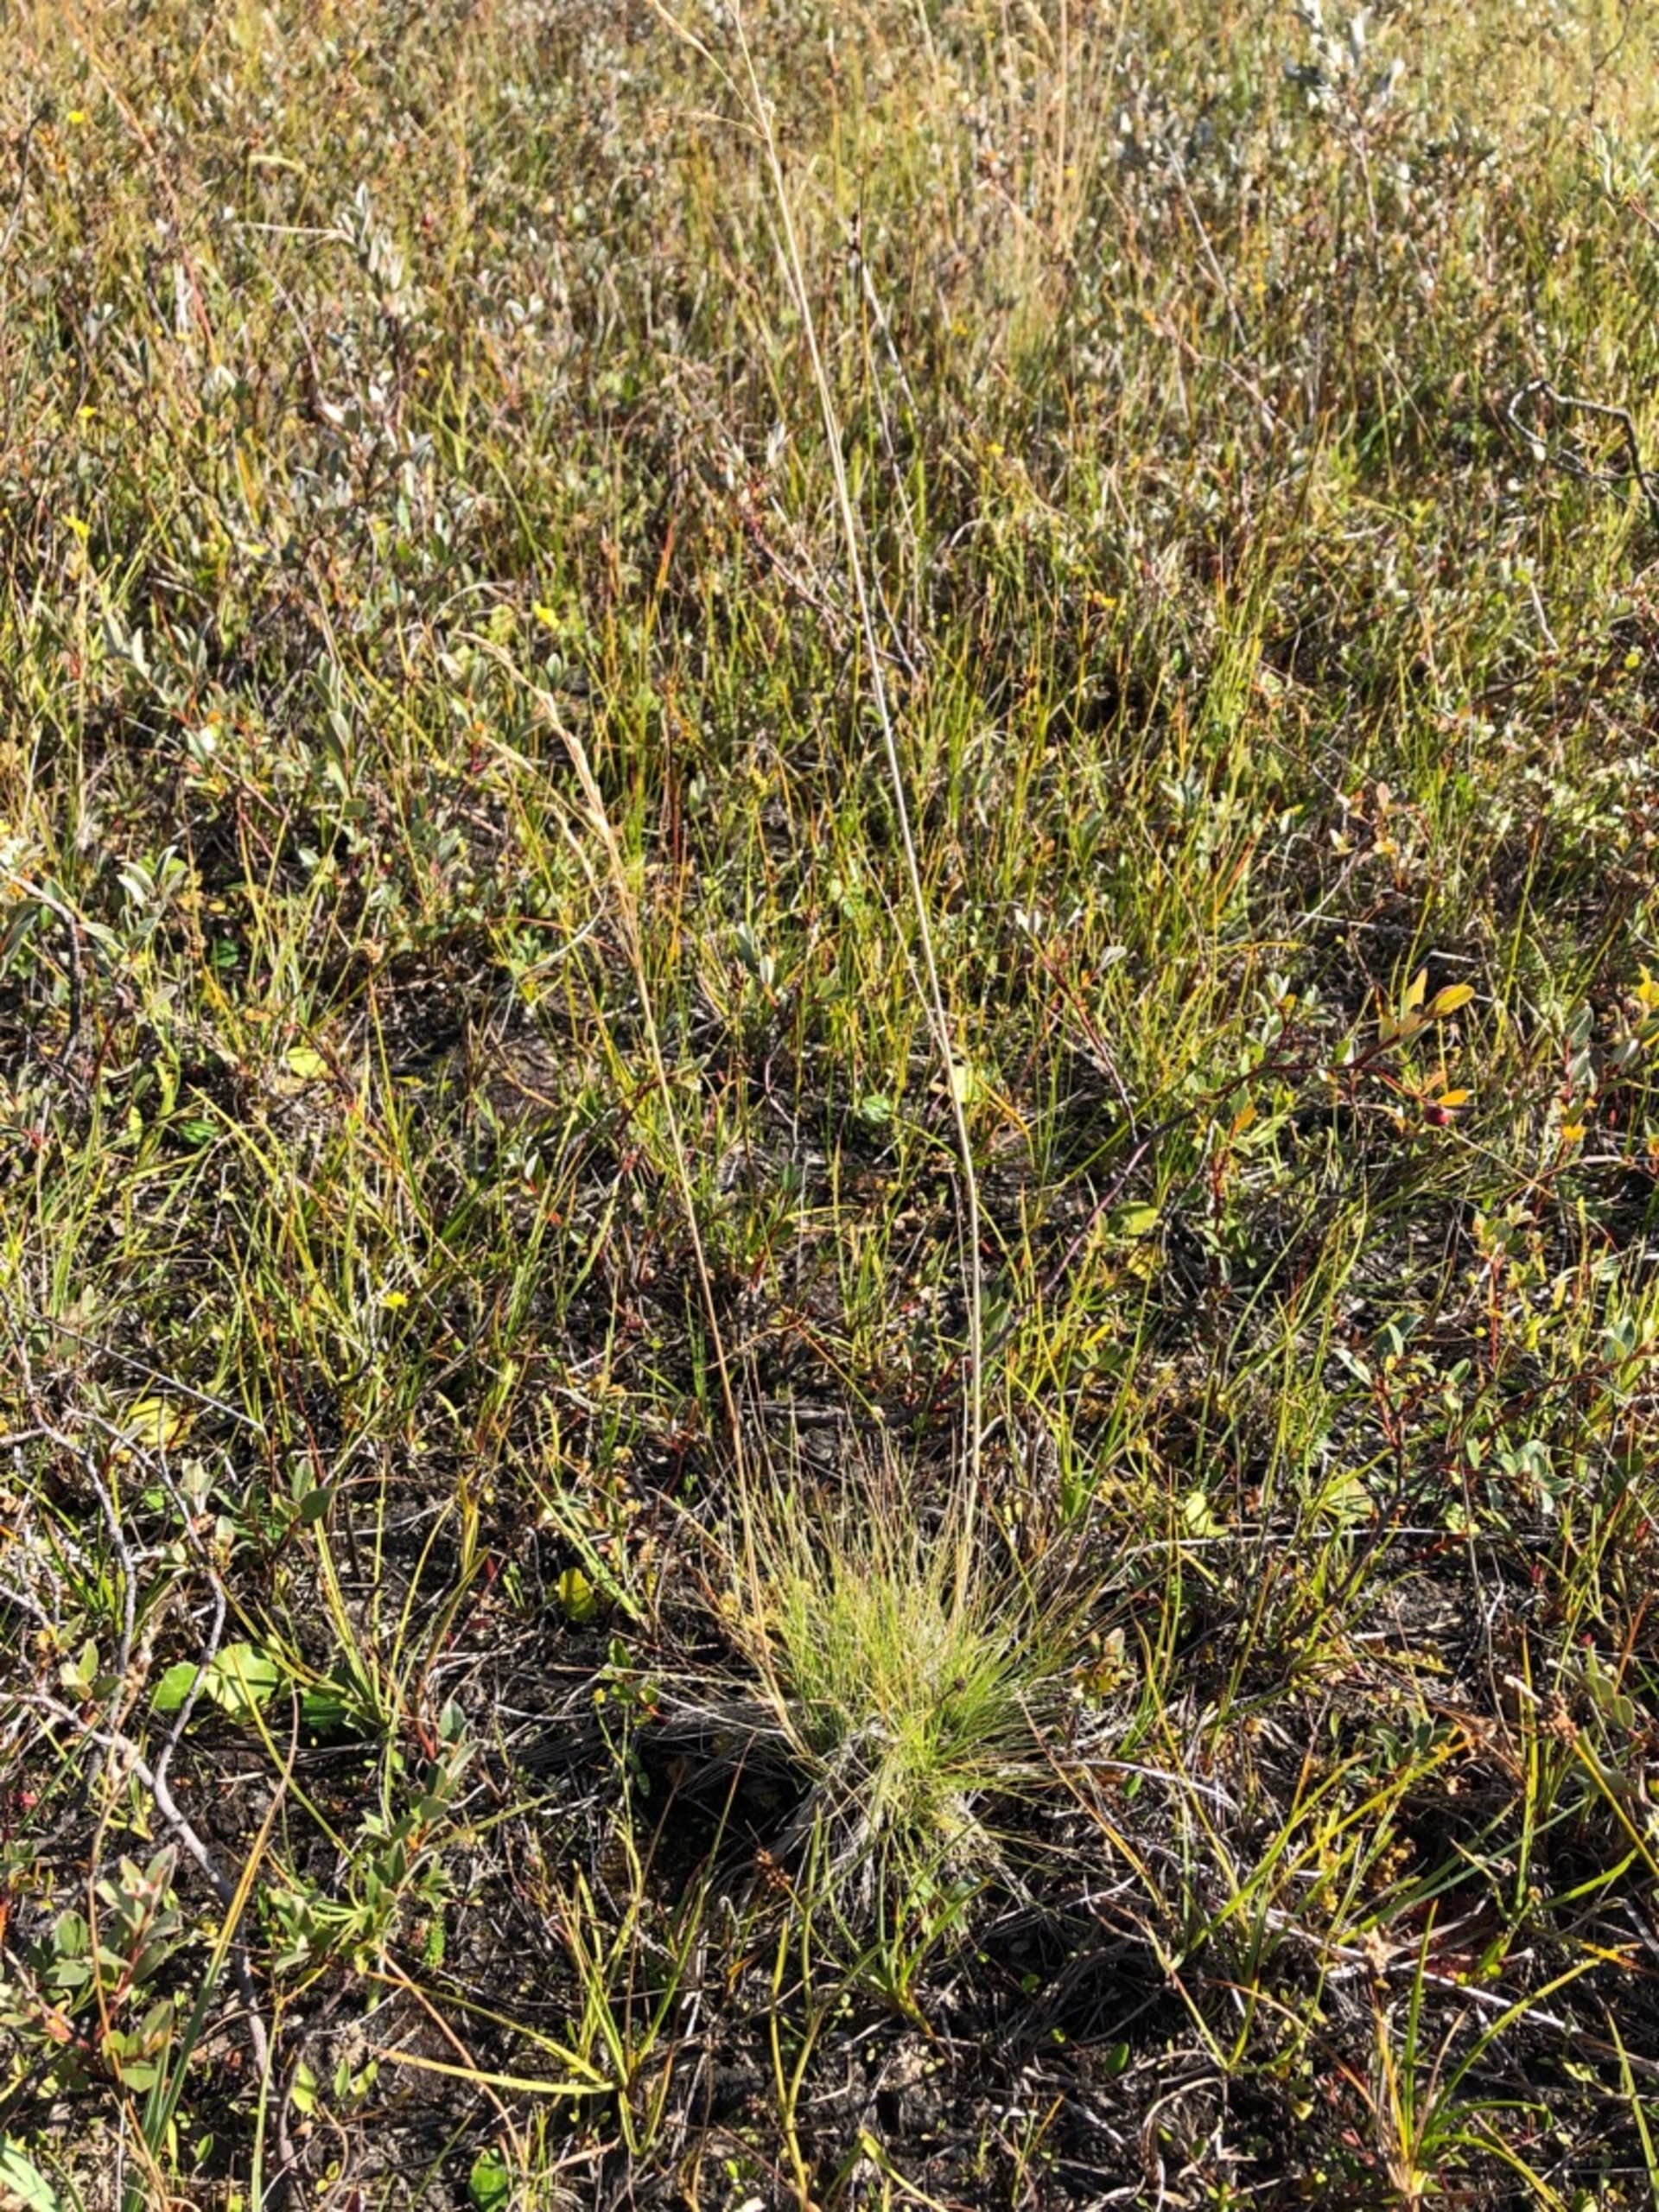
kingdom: Plantae
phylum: Tracheophyta
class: Liliopsida
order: Poales
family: Poaceae
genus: Deschampsia
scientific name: Deschampsia setacea
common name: Fin bunke
